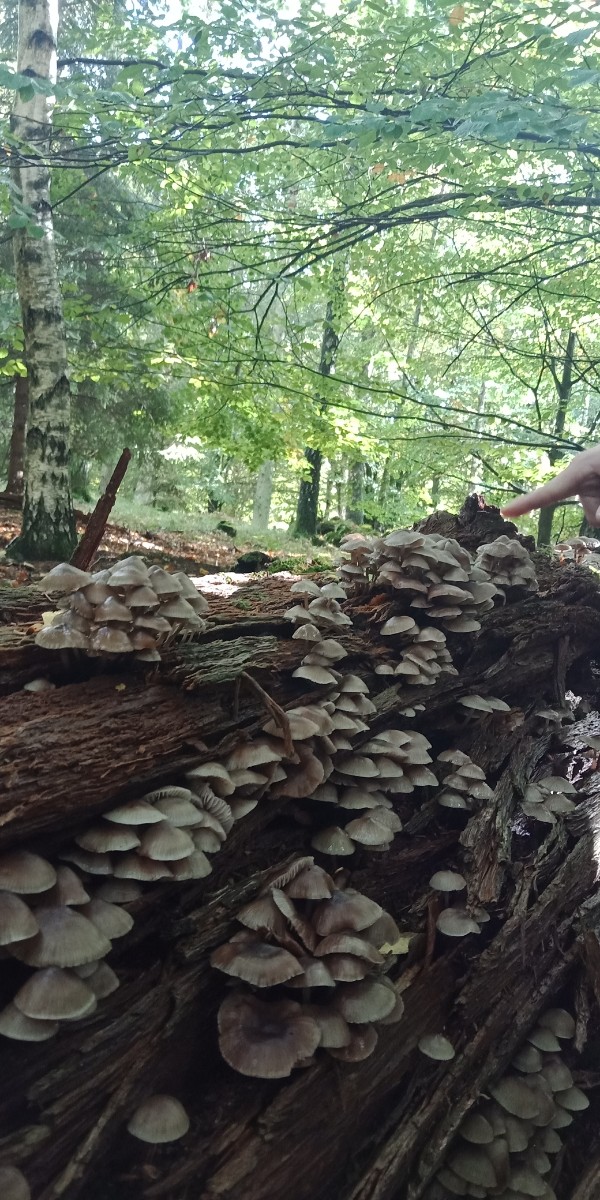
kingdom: Fungi
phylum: Basidiomycota
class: Agaricomycetes
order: Agaricales
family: Mycenaceae
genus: Mycena
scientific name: Mycena inclinata
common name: nikkende huesvamp
